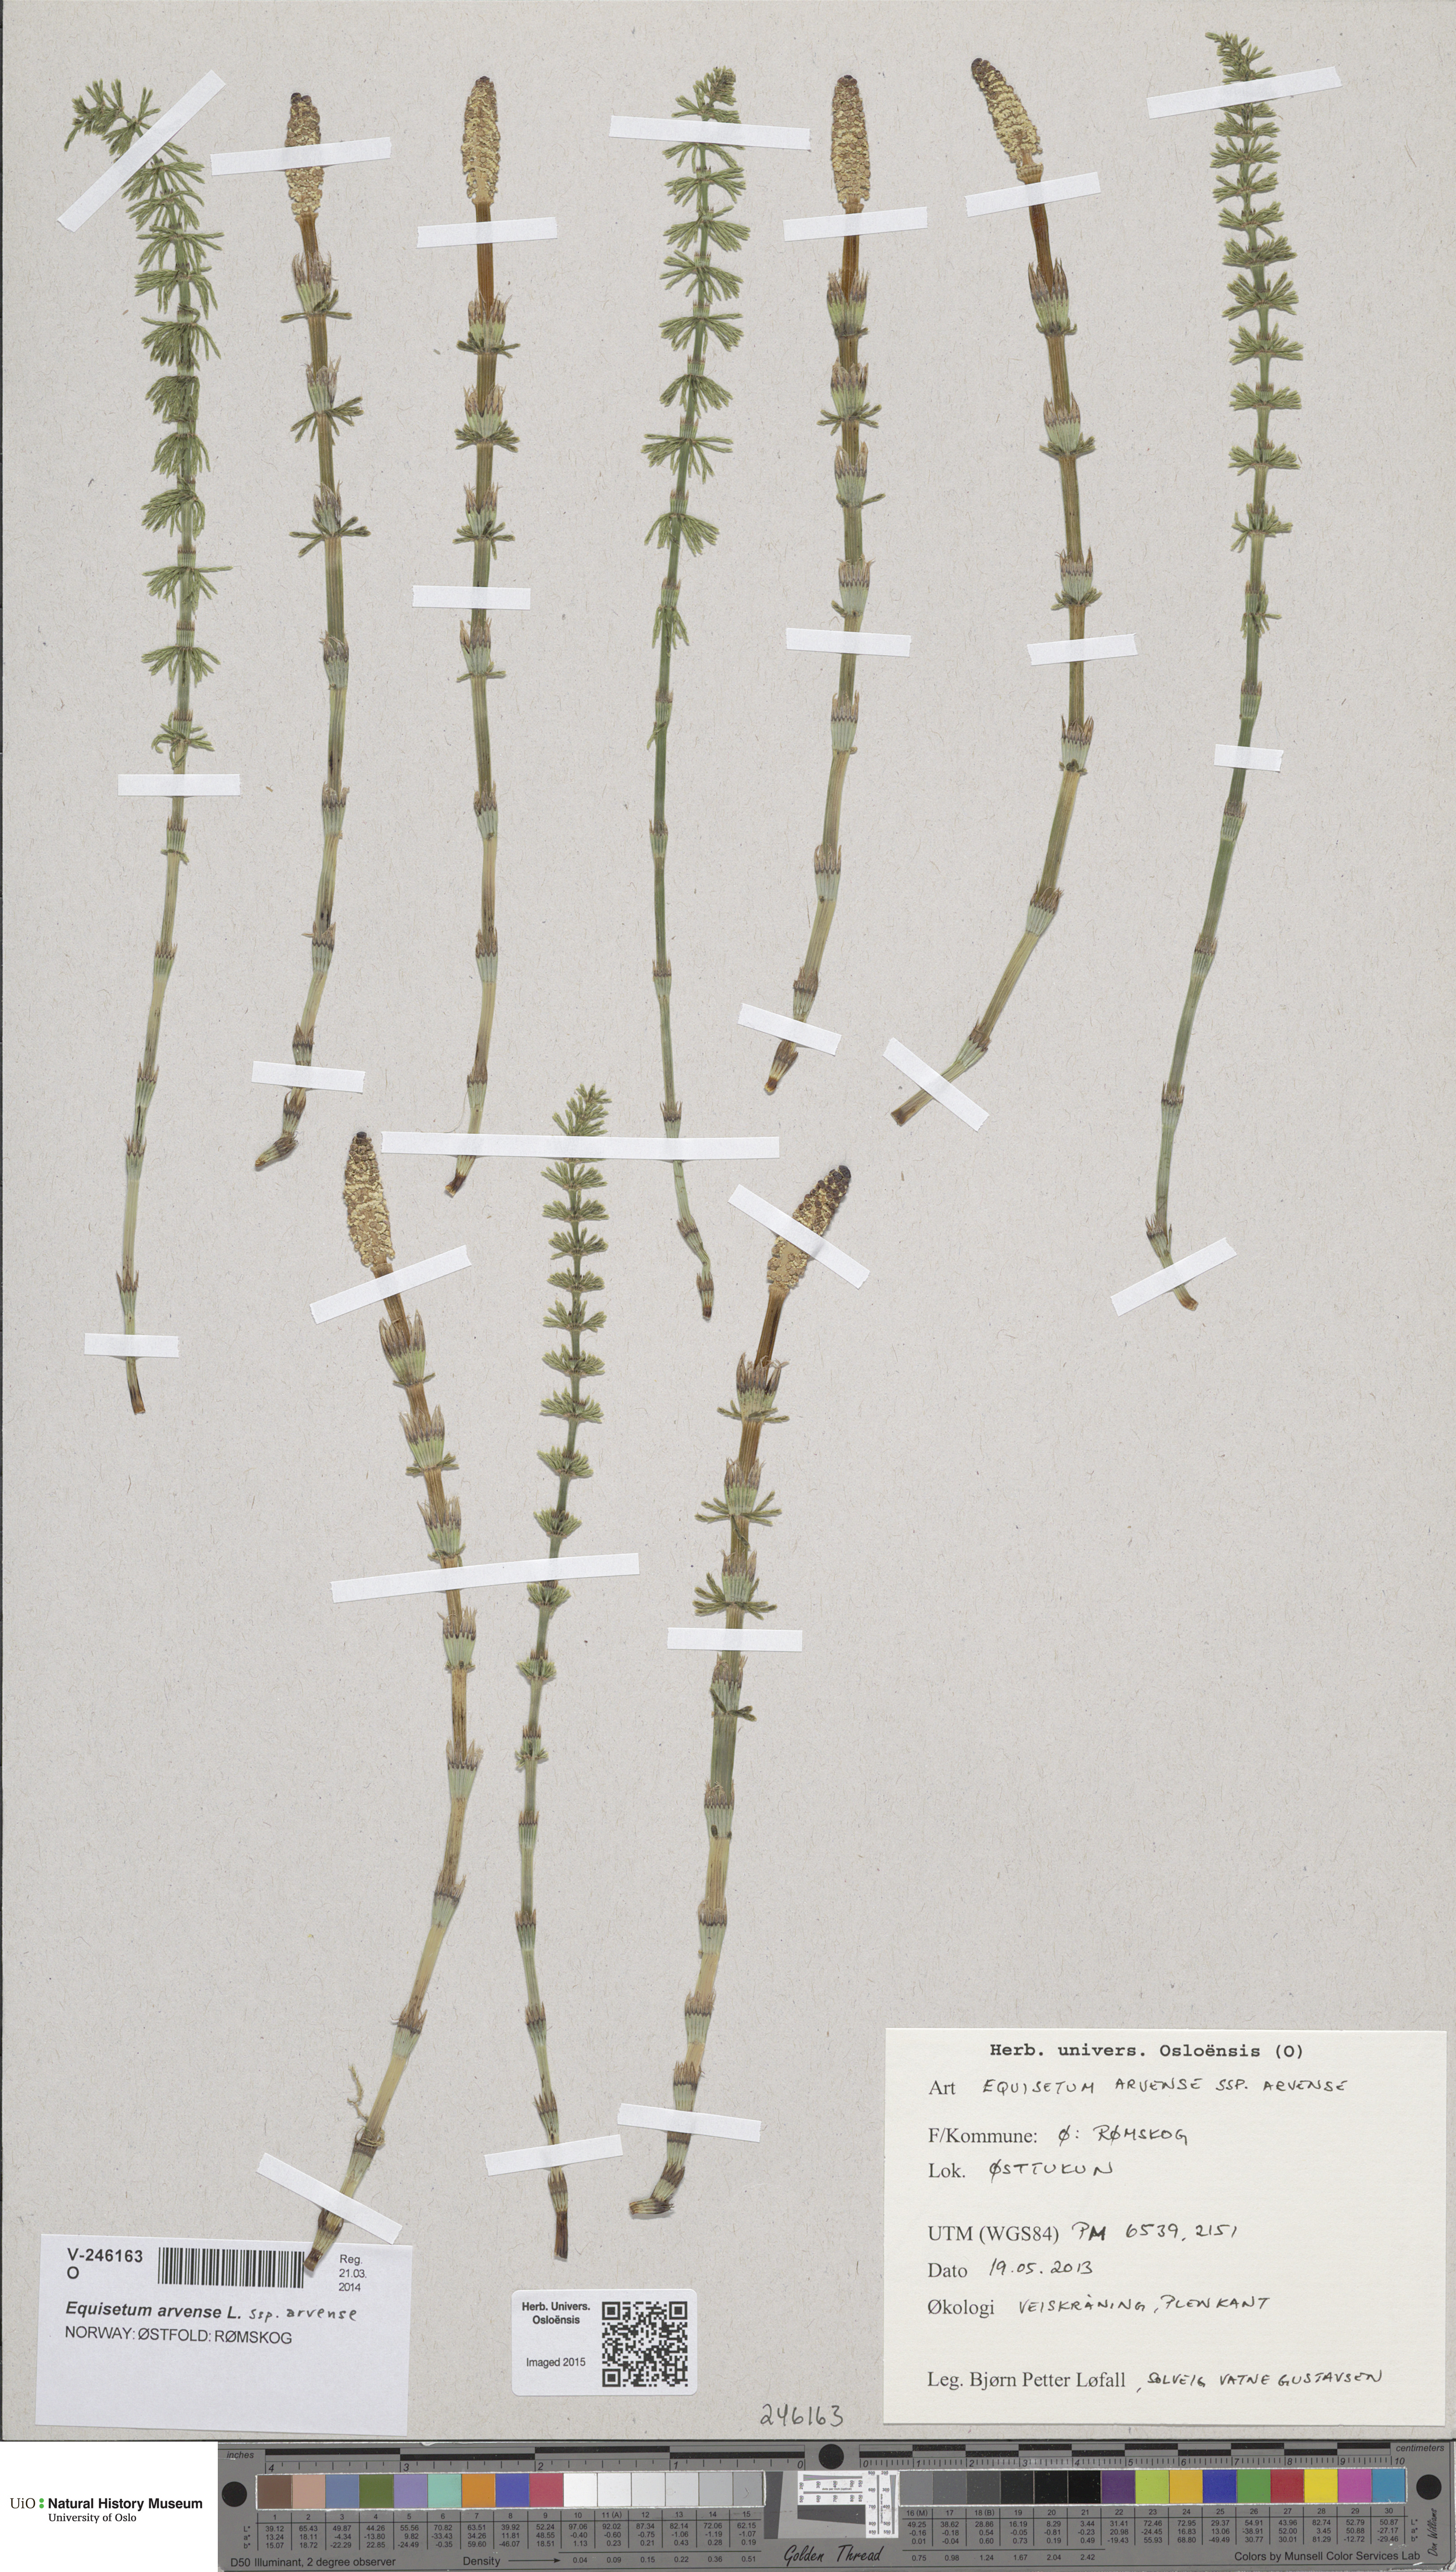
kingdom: Plantae
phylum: Tracheophyta
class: Polypodiopsida
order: Equisetales
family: Equisetaceae
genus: Equisetum
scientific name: Equisetum sylvaticum
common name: Wood horsetail
